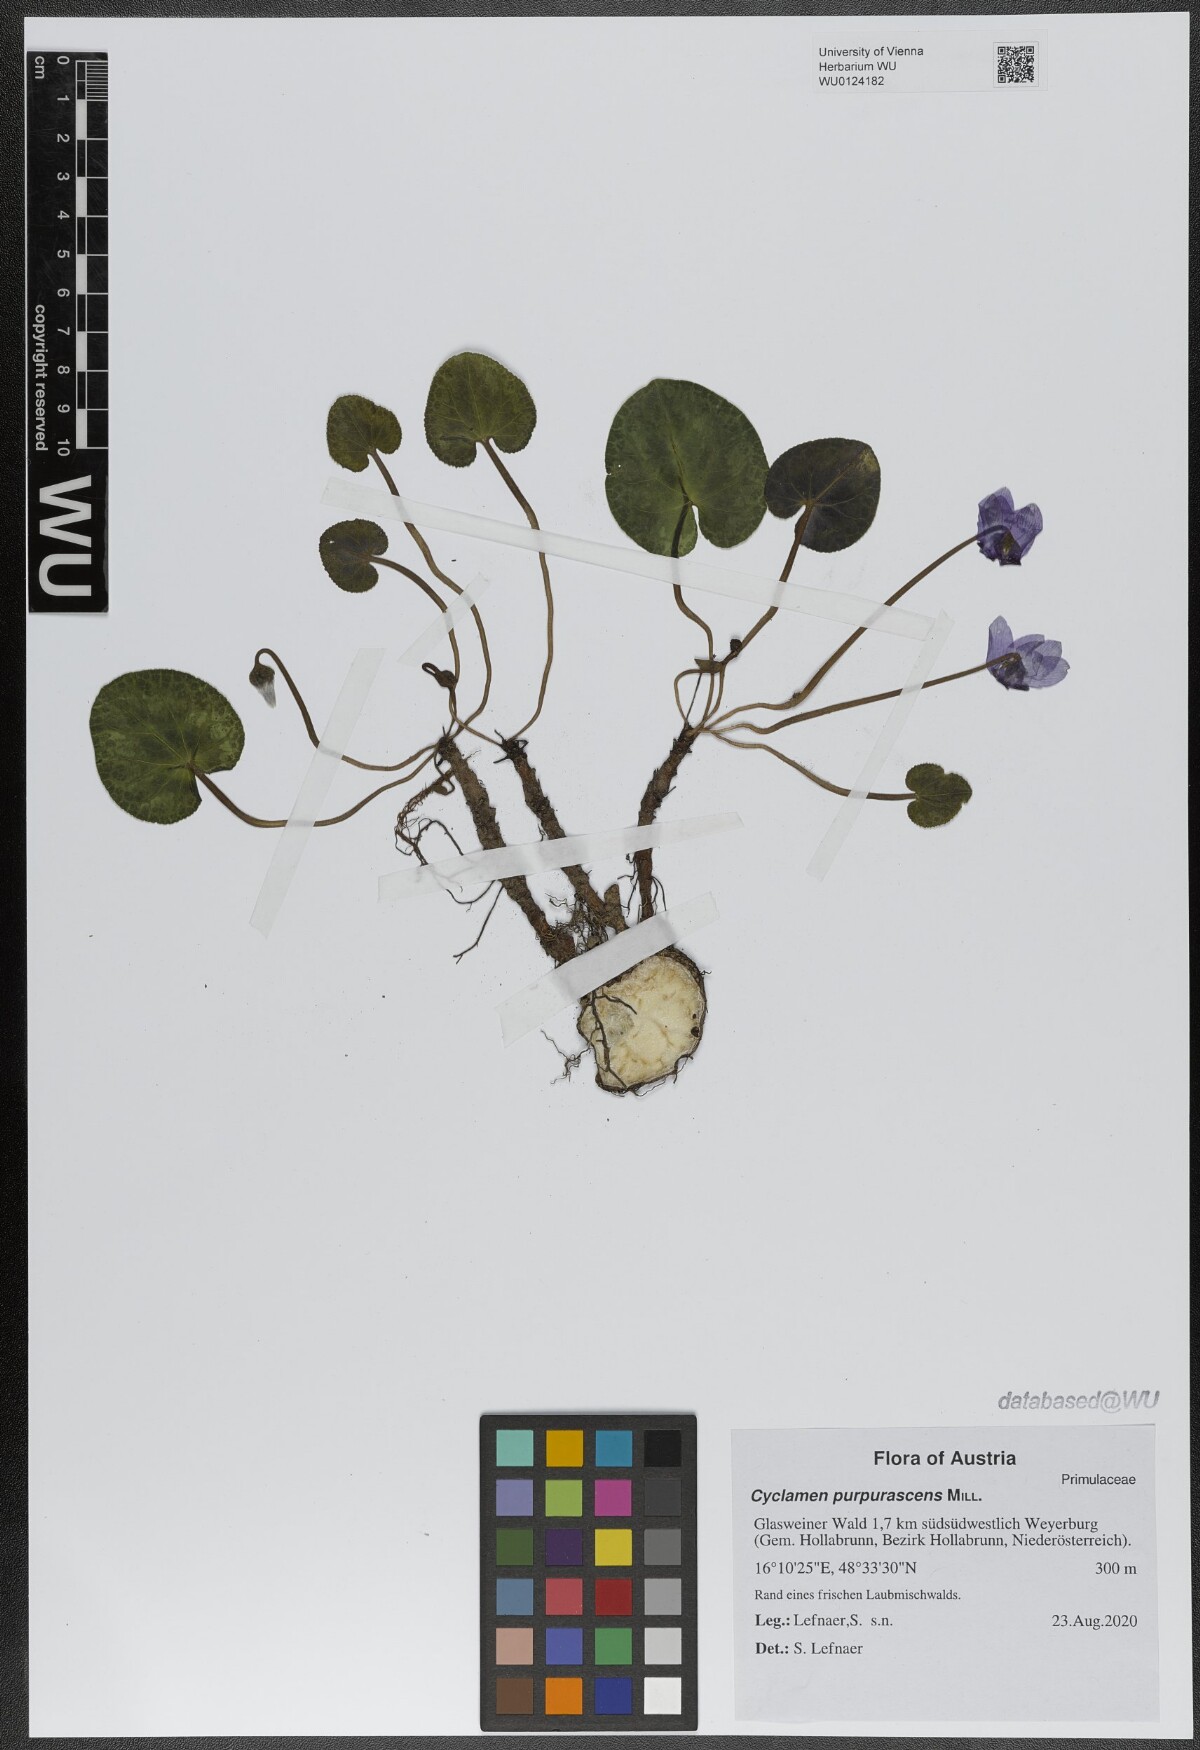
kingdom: Plantae
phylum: Tracheophyta
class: Magnoliopsida
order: Ericales
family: Primulaceae
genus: Cyclamen
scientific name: Cyclamen purpurascens
